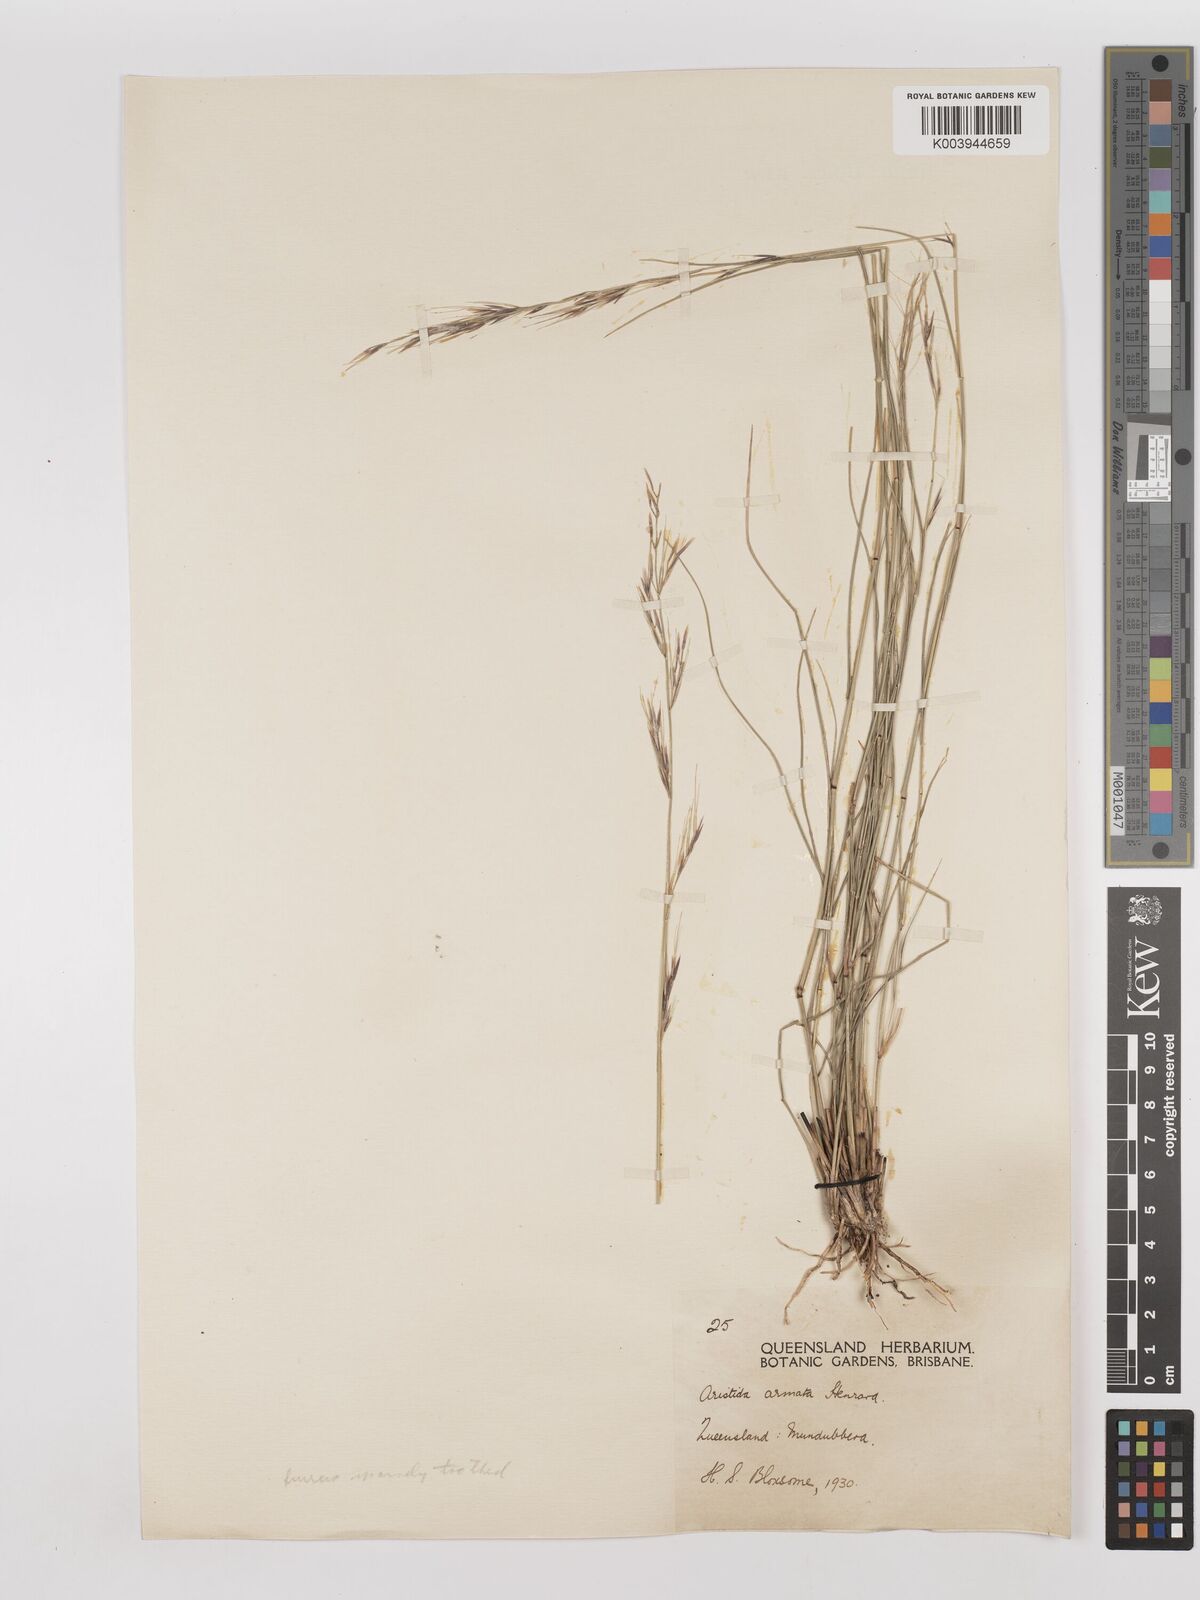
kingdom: Plantae
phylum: Tracheophyta
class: Liliopsida
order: Poales
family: Poaceae
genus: Aristida
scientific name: Aristida calycina
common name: Dark wire grass
